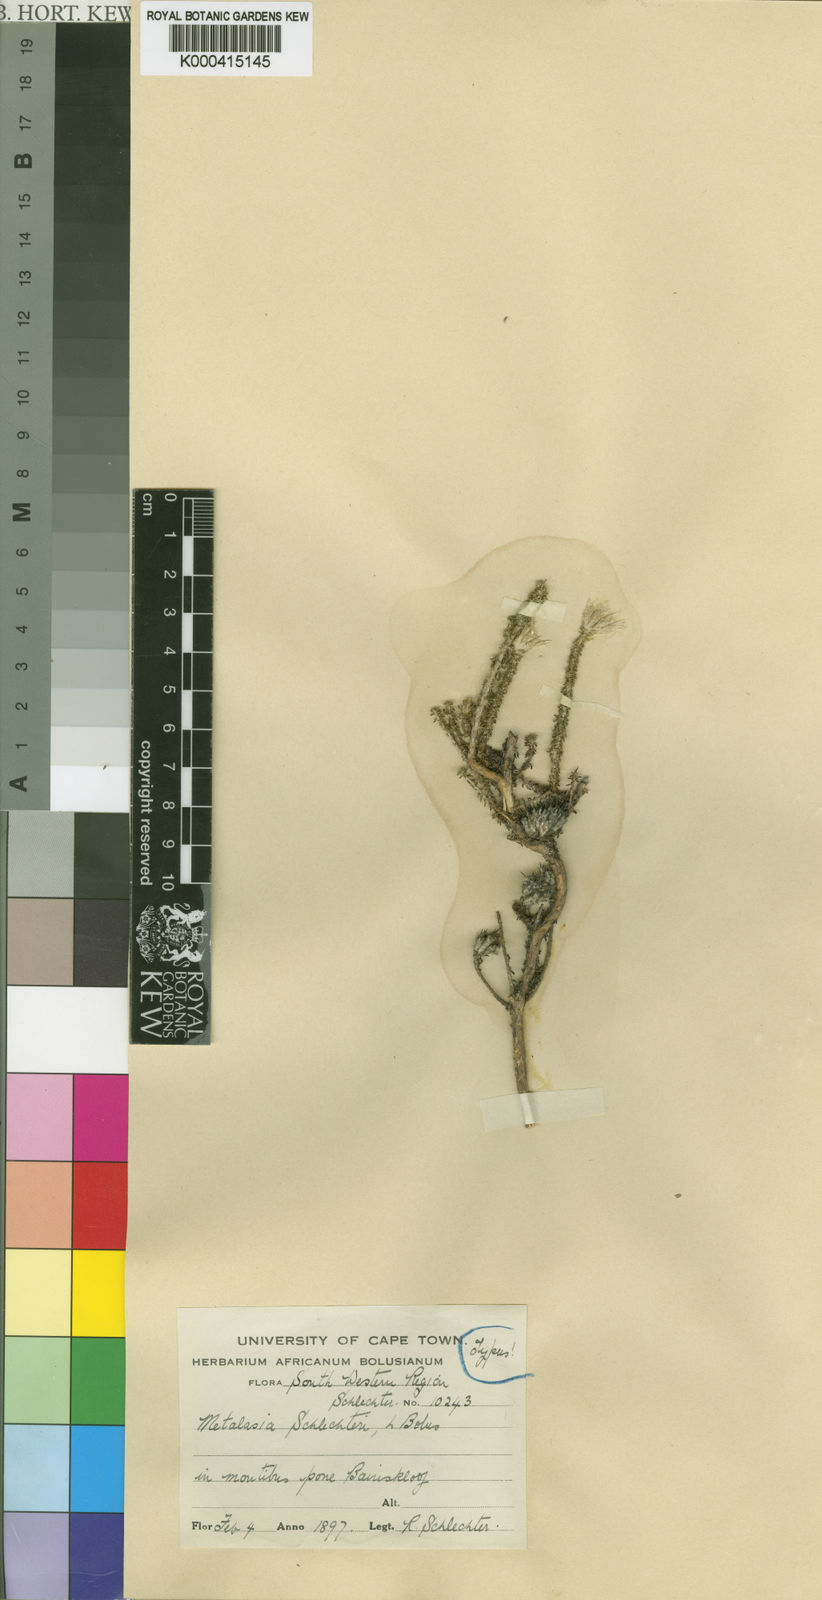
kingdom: Plantae
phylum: Tracheophyta
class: Magnoliopsida
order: Asterales
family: Asteraceae
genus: Planea
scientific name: Planea schlechteri
